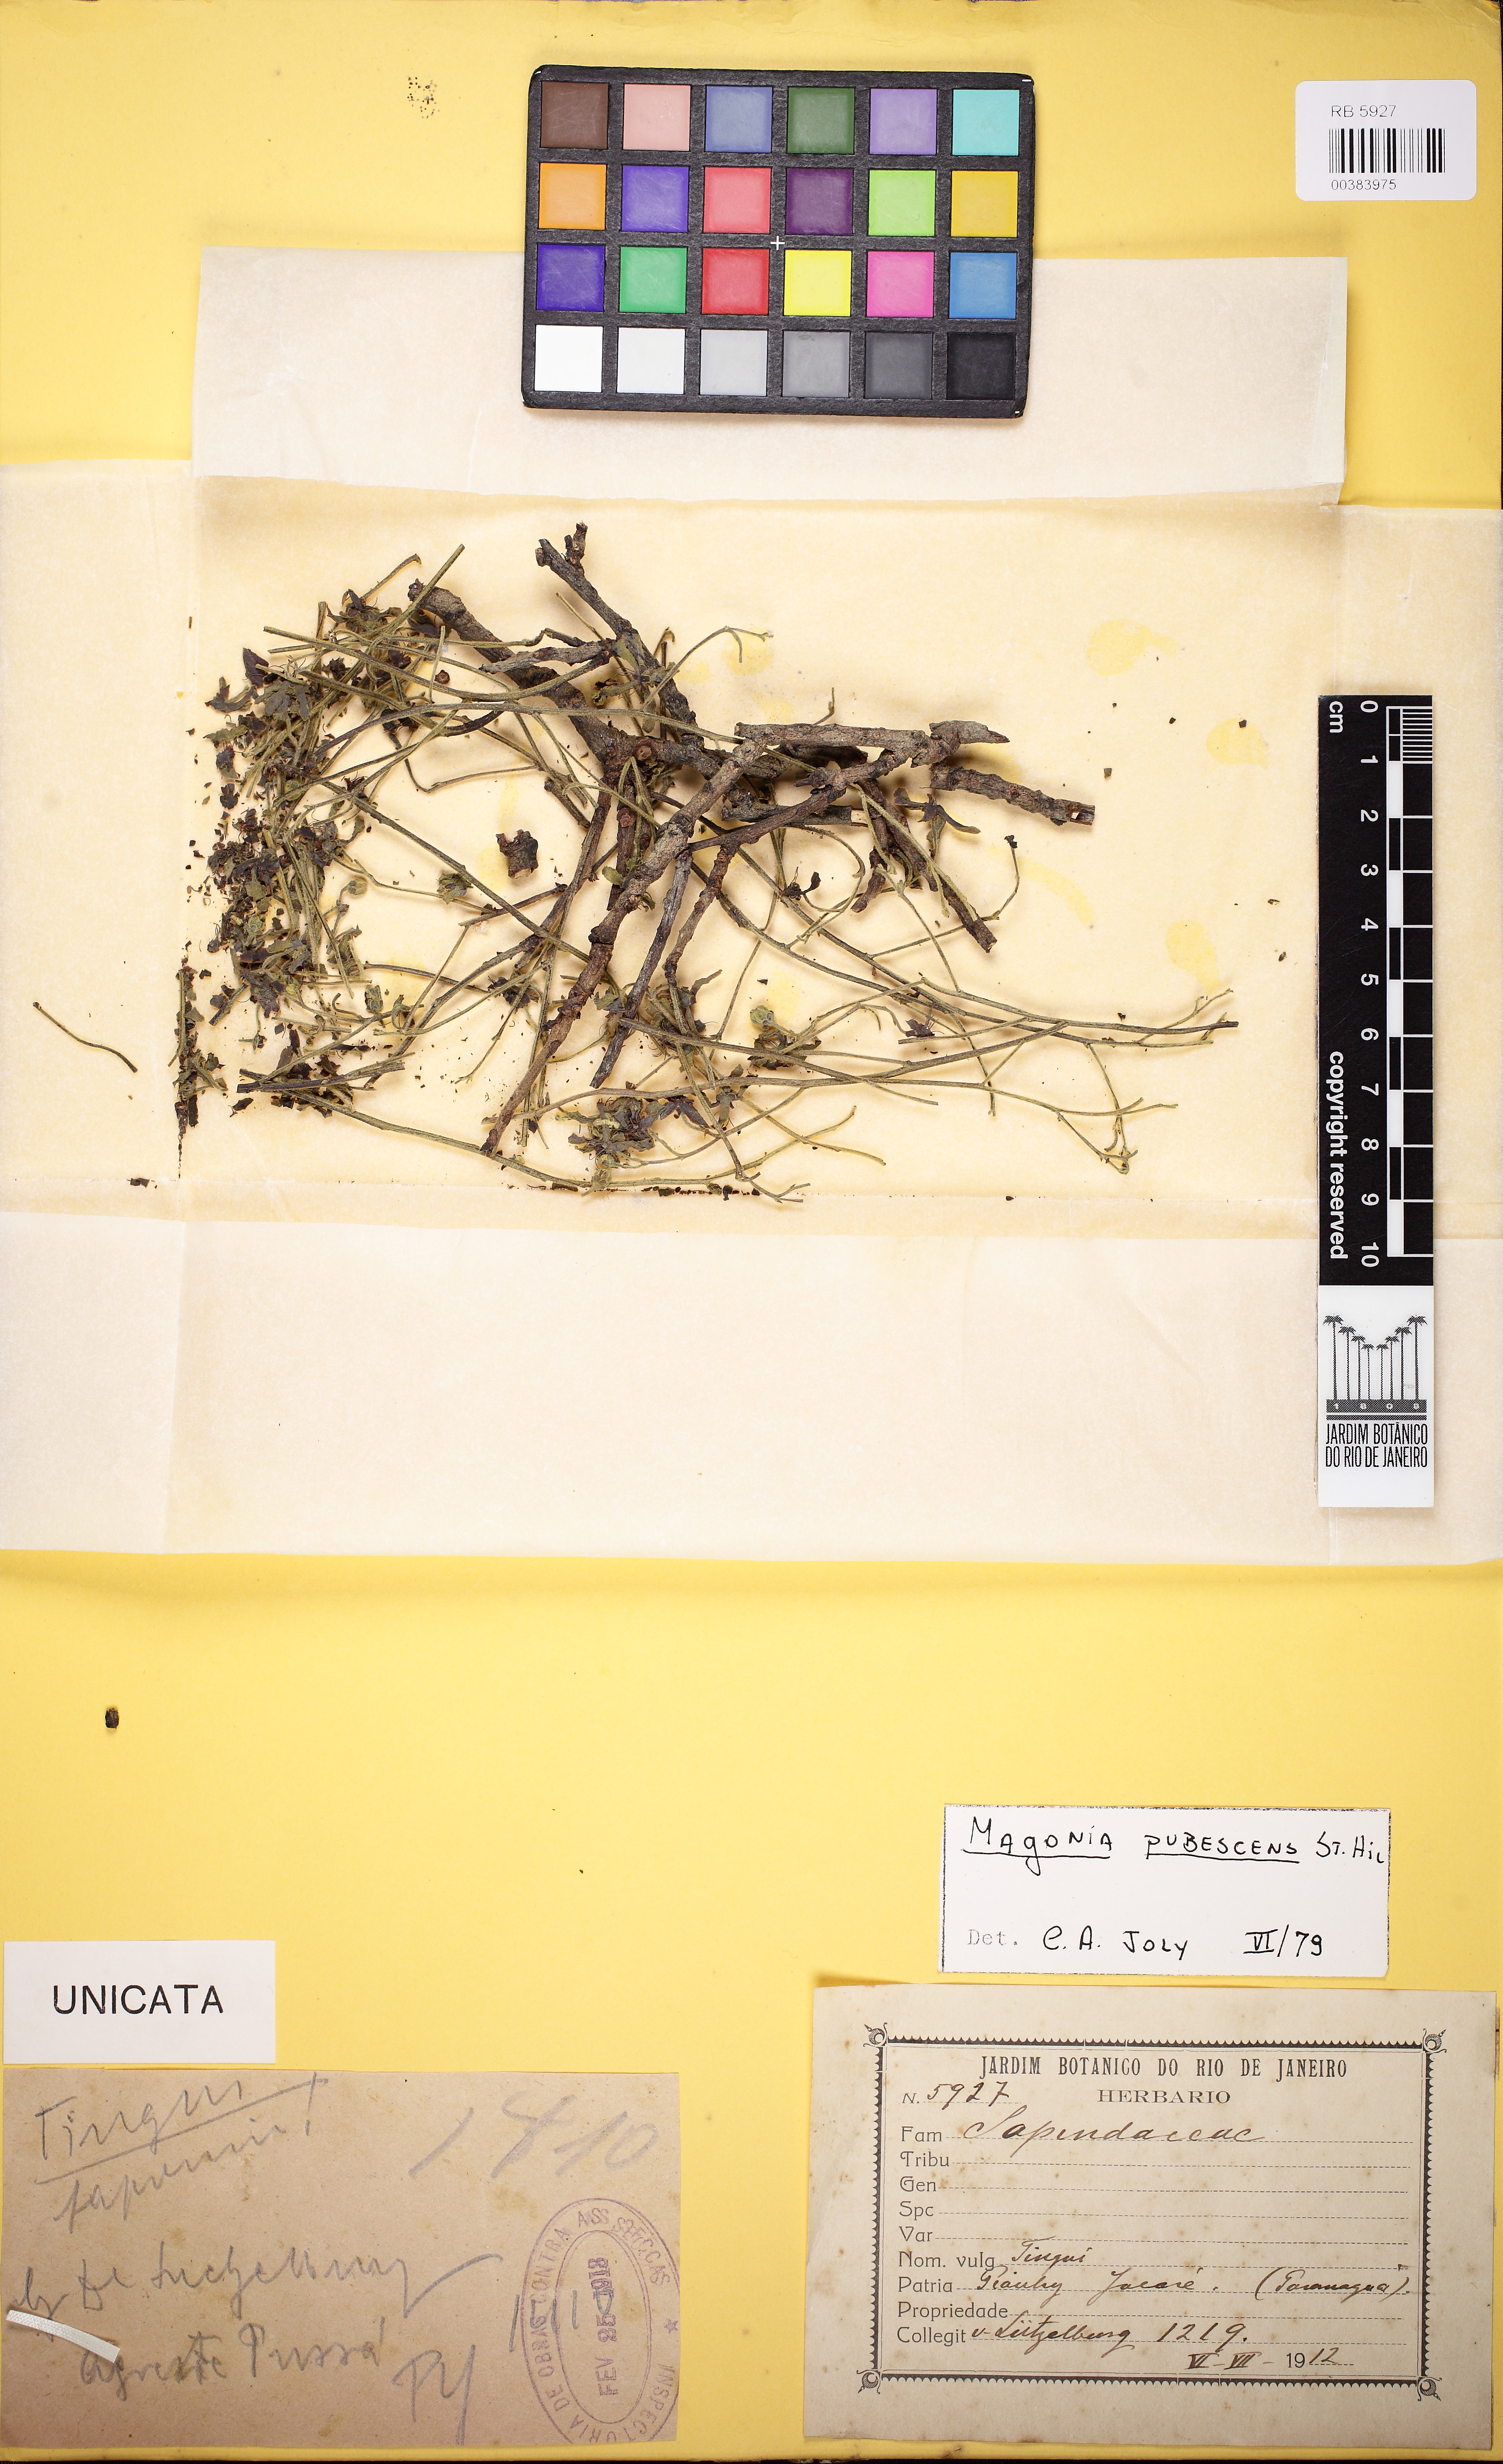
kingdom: Plantae
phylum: Tracheophyta
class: Magnoliopsida
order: Sapindales
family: Sapindaceae
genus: Magonia
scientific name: Magonia pubescens
